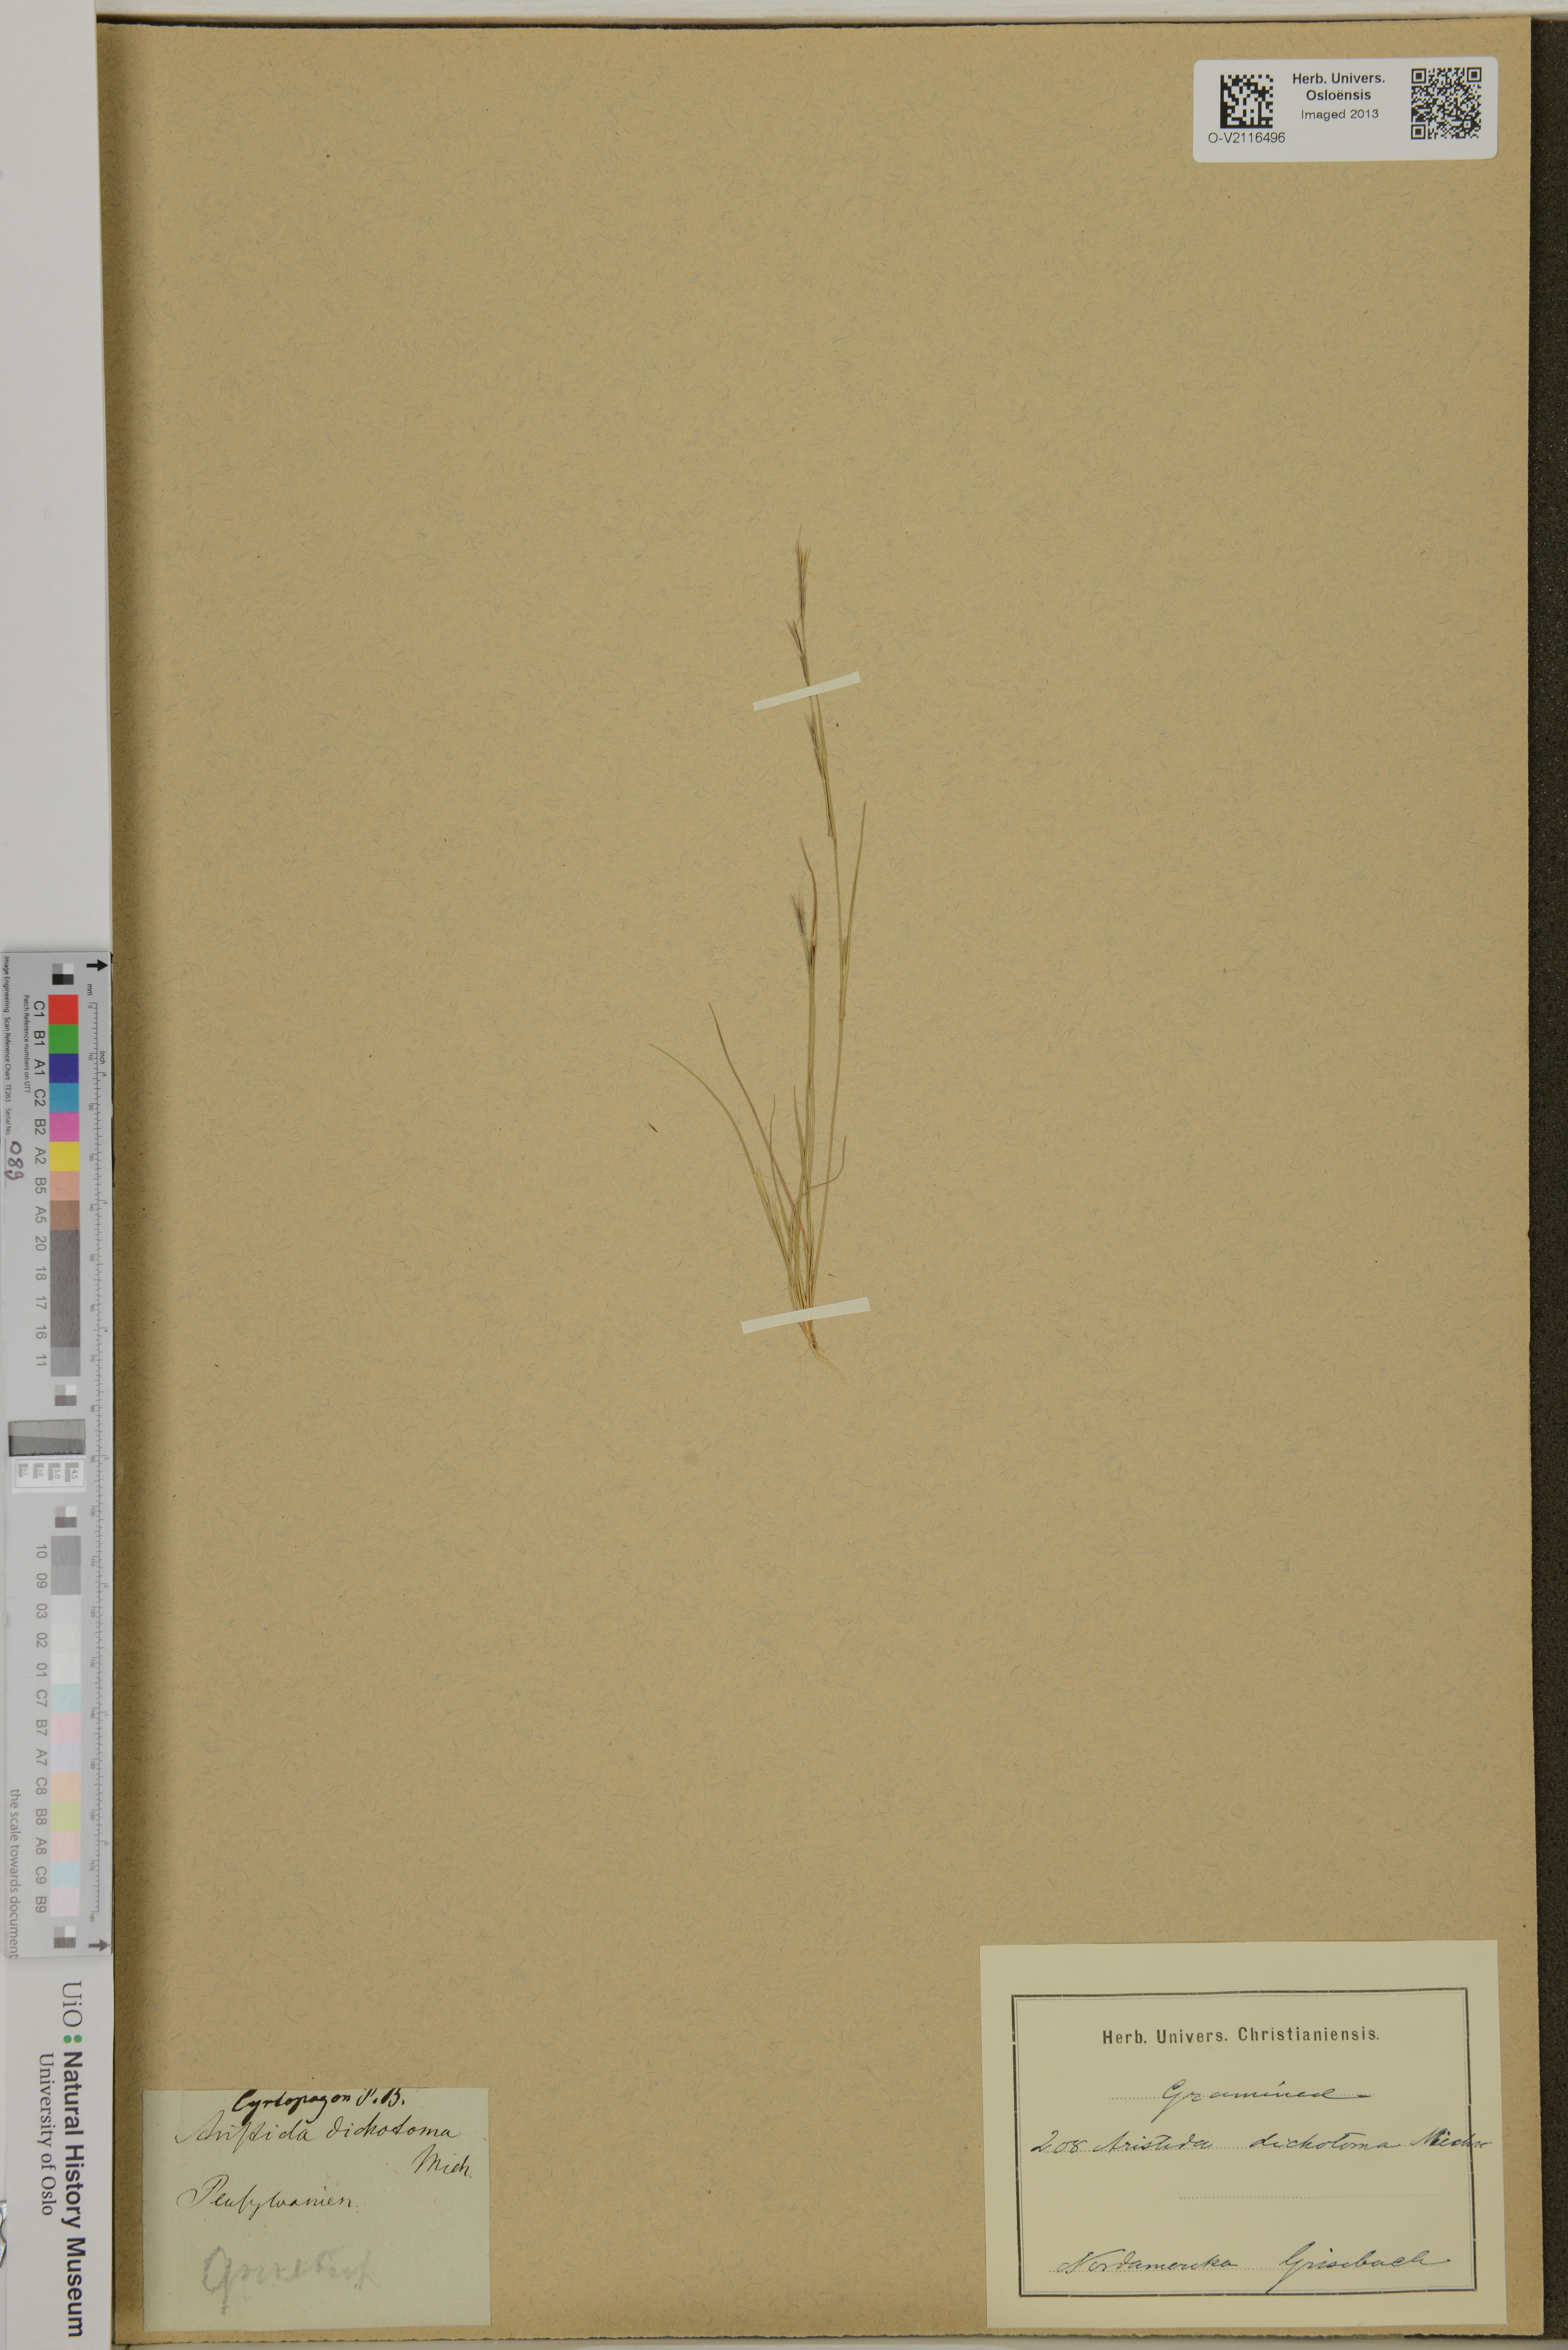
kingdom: Plantae
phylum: Tracheophyta
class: Liliopsida
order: Poales
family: Poaceae
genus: Aristida
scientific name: Aristida dichotoma
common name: Churchmouse three-awn
